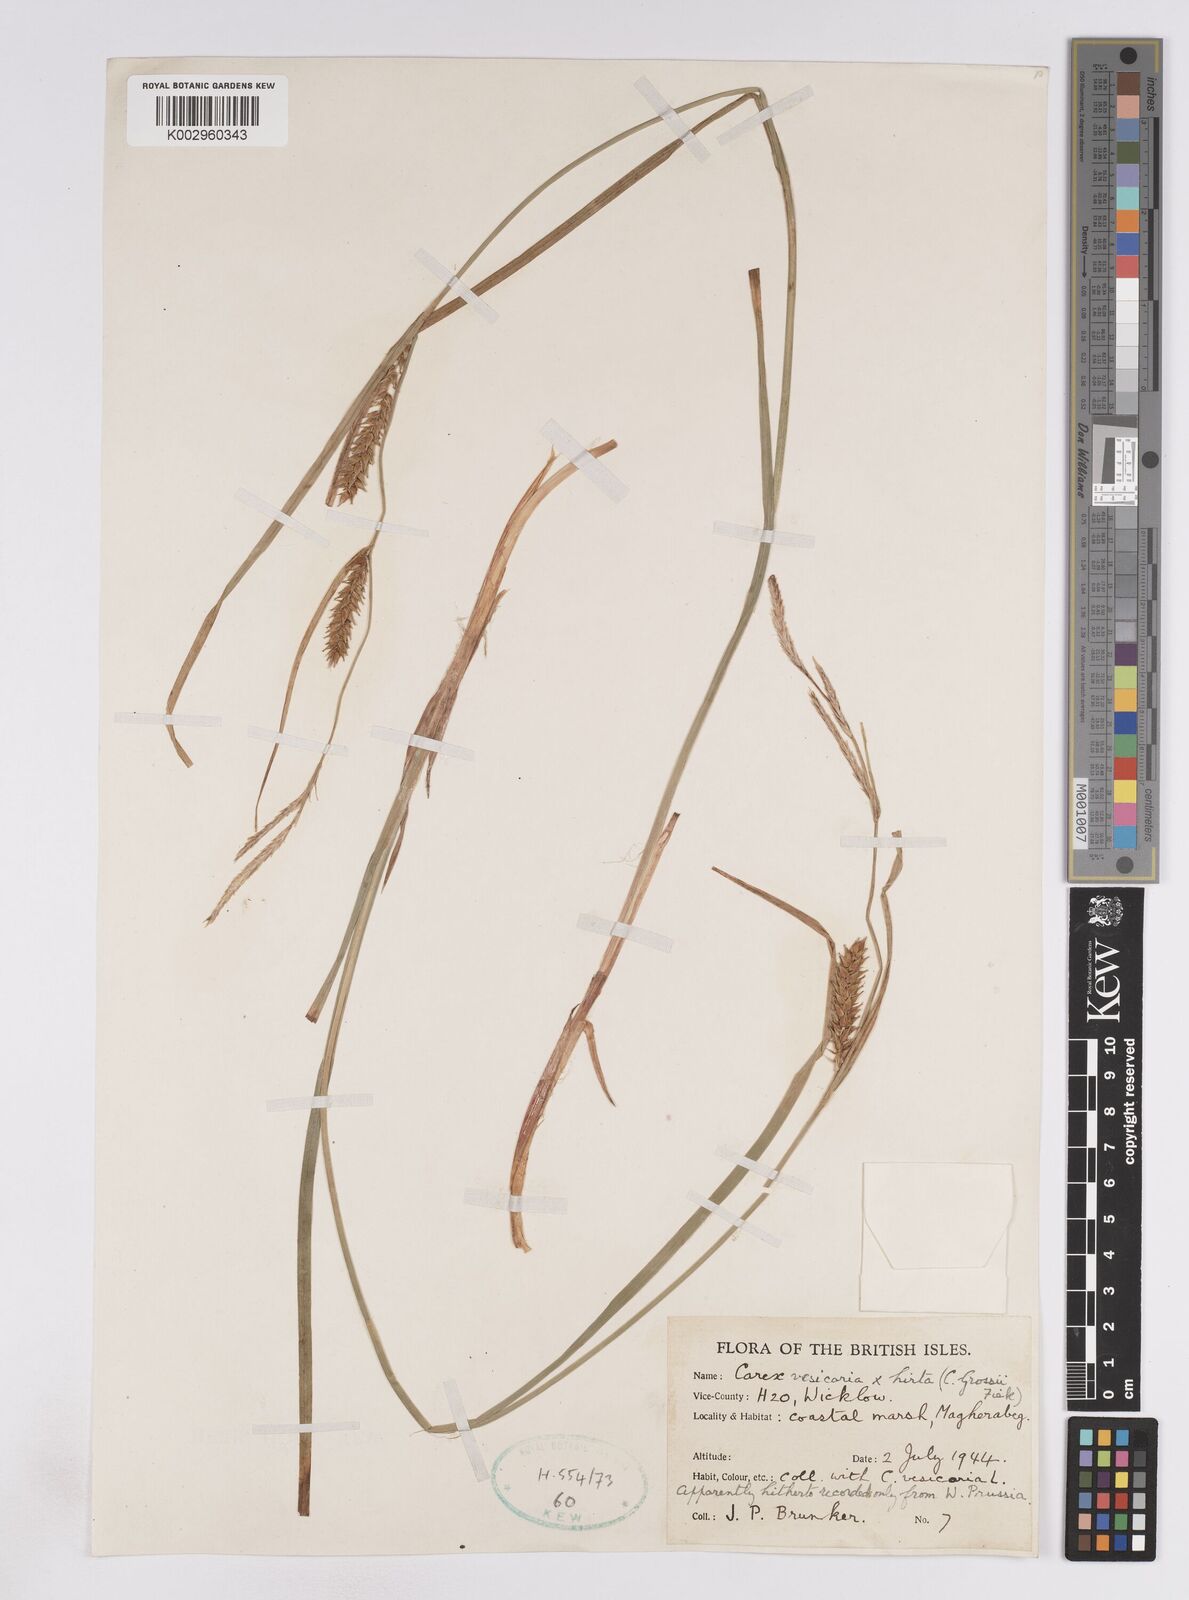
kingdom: Plantae
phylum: Tracheophyta
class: Liliopsida
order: Poales
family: Cyperaceae
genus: Carex
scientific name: Carex vesicaria
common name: Bladder-sedge
